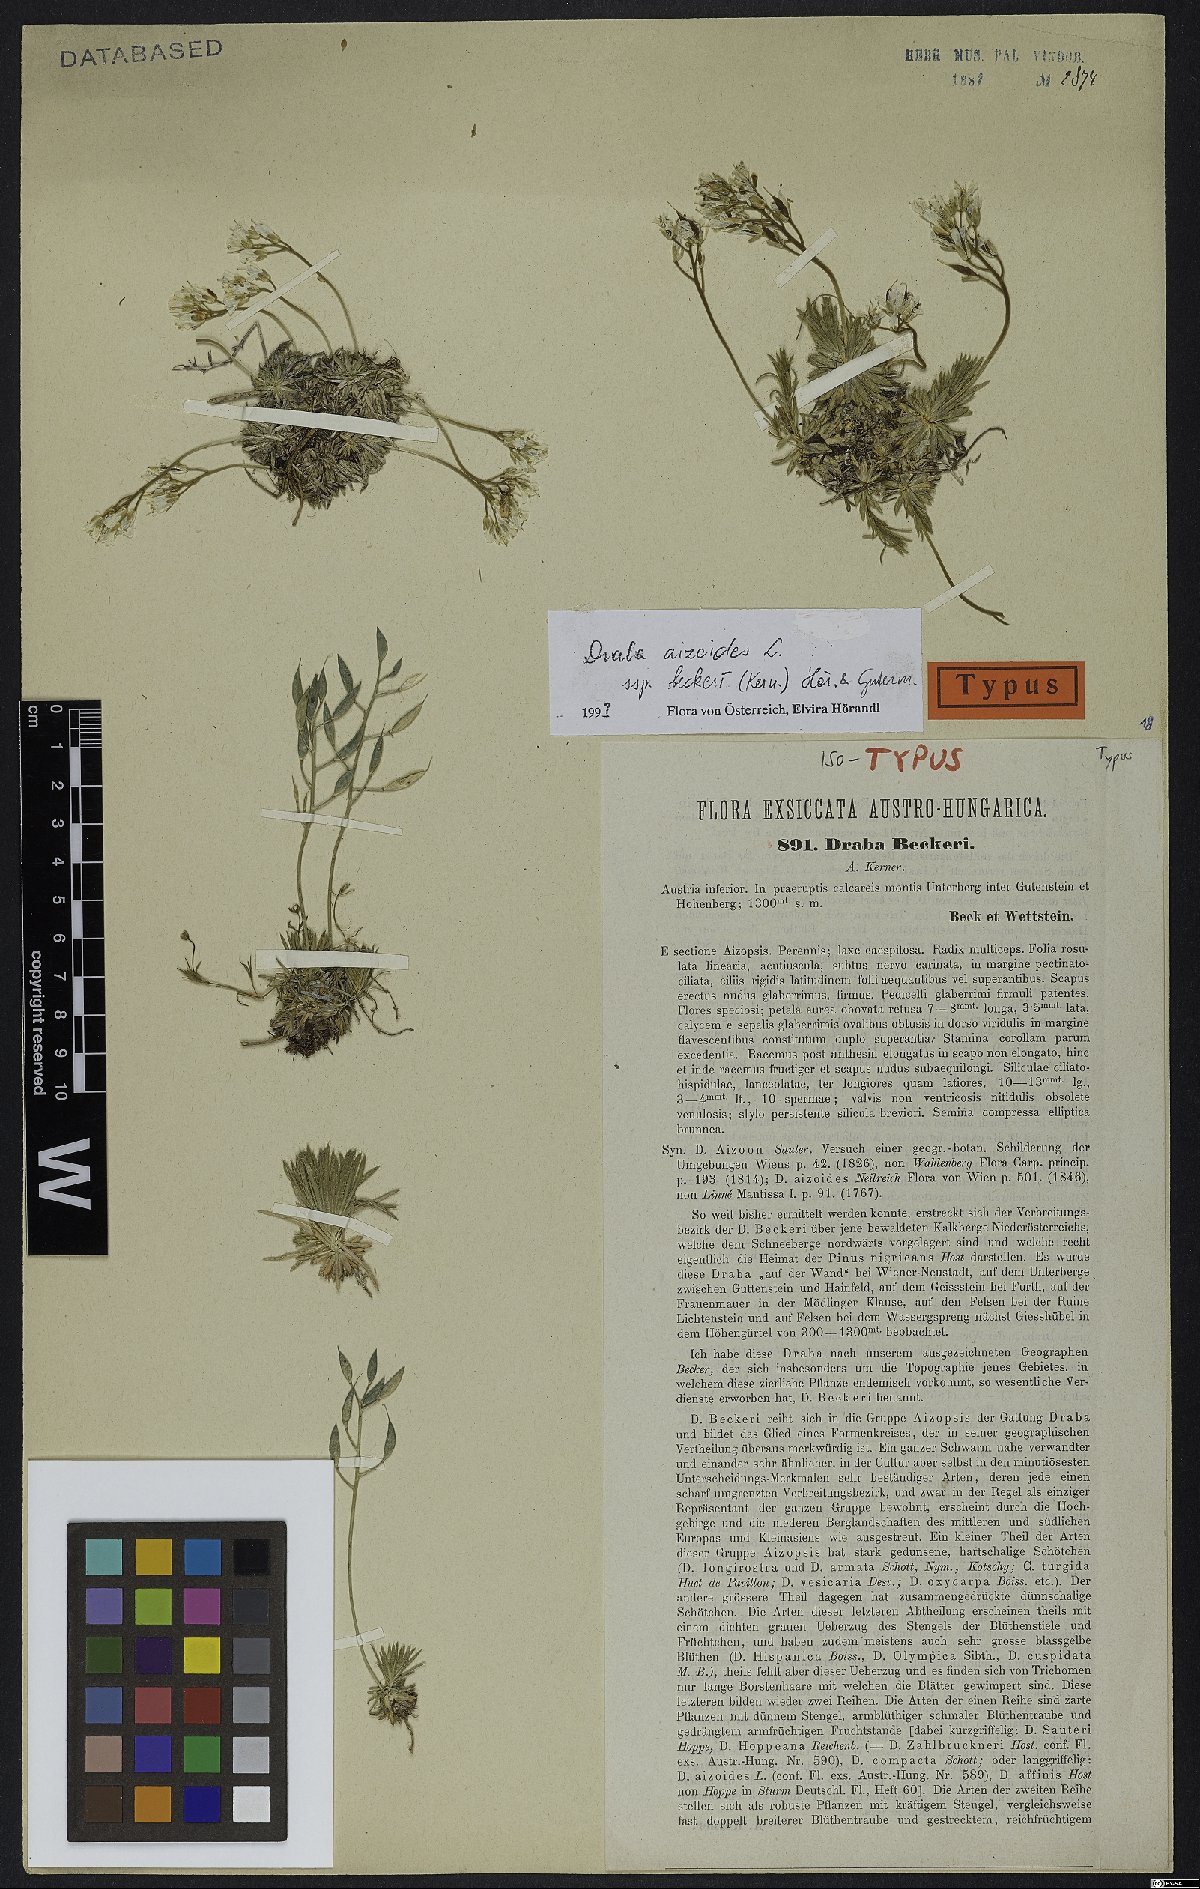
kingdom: Plantae
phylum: Tracheophyta
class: Magnoliopsida
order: Brassicales
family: Brassicaceae
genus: Draba
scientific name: Draba aizoides
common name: Yellow whitlowgrass
